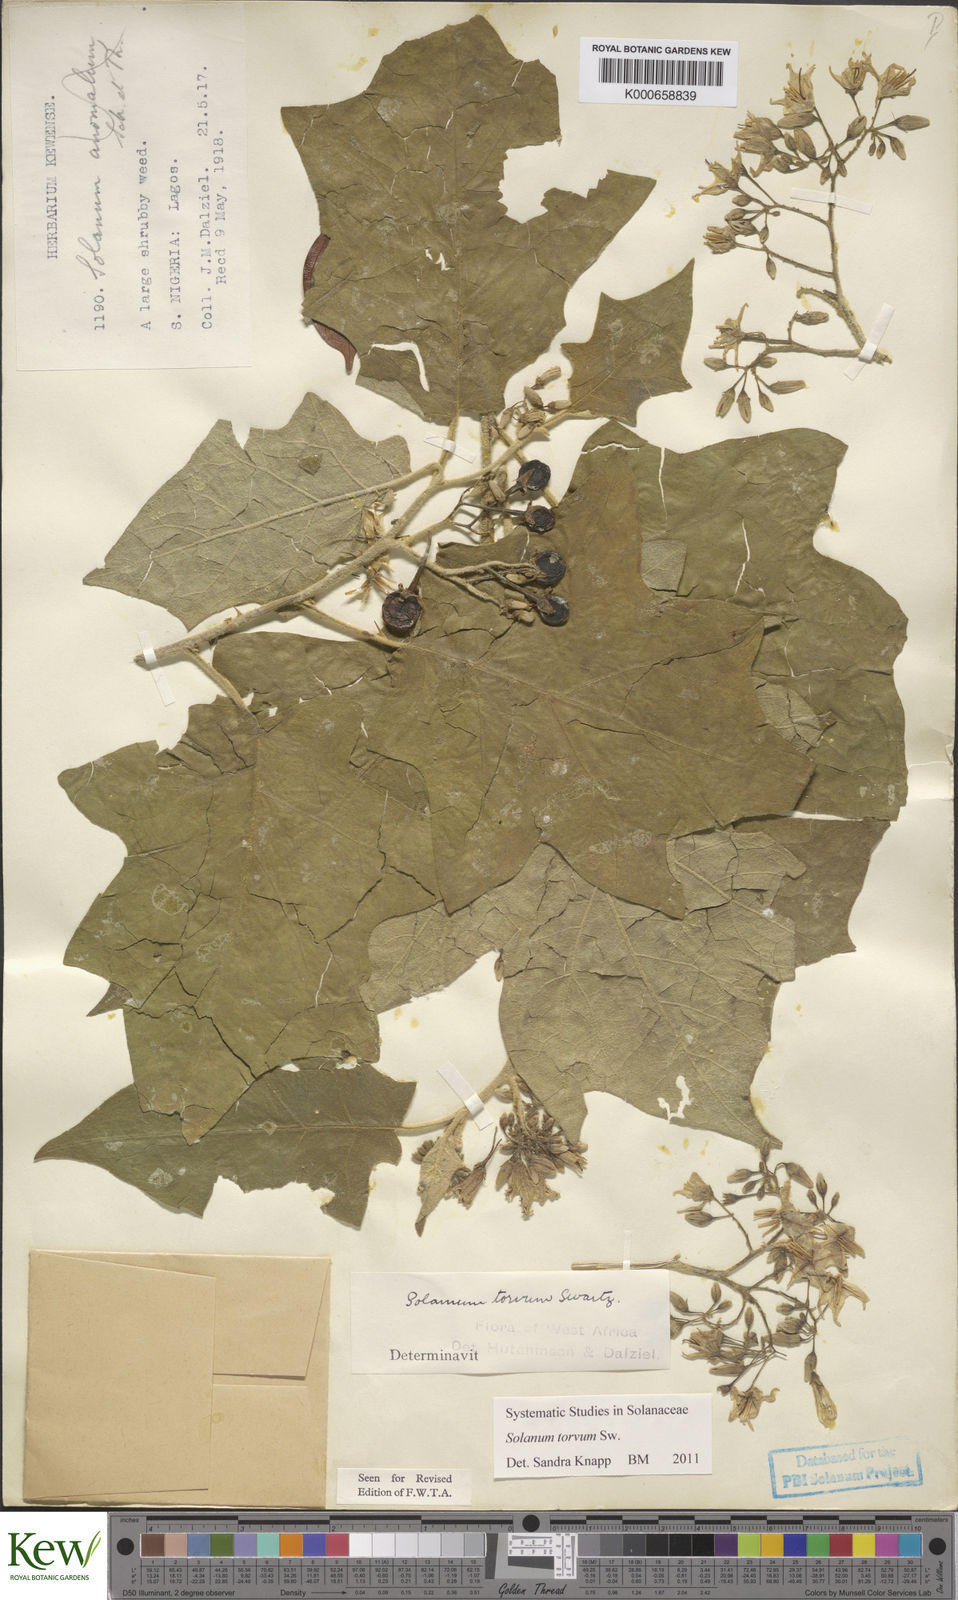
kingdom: Plantae
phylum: Tracheophyta
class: Magnoliopsida
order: Solanales
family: Solanaceae
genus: Solanum
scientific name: Solanum torvum
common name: Turkey berry
